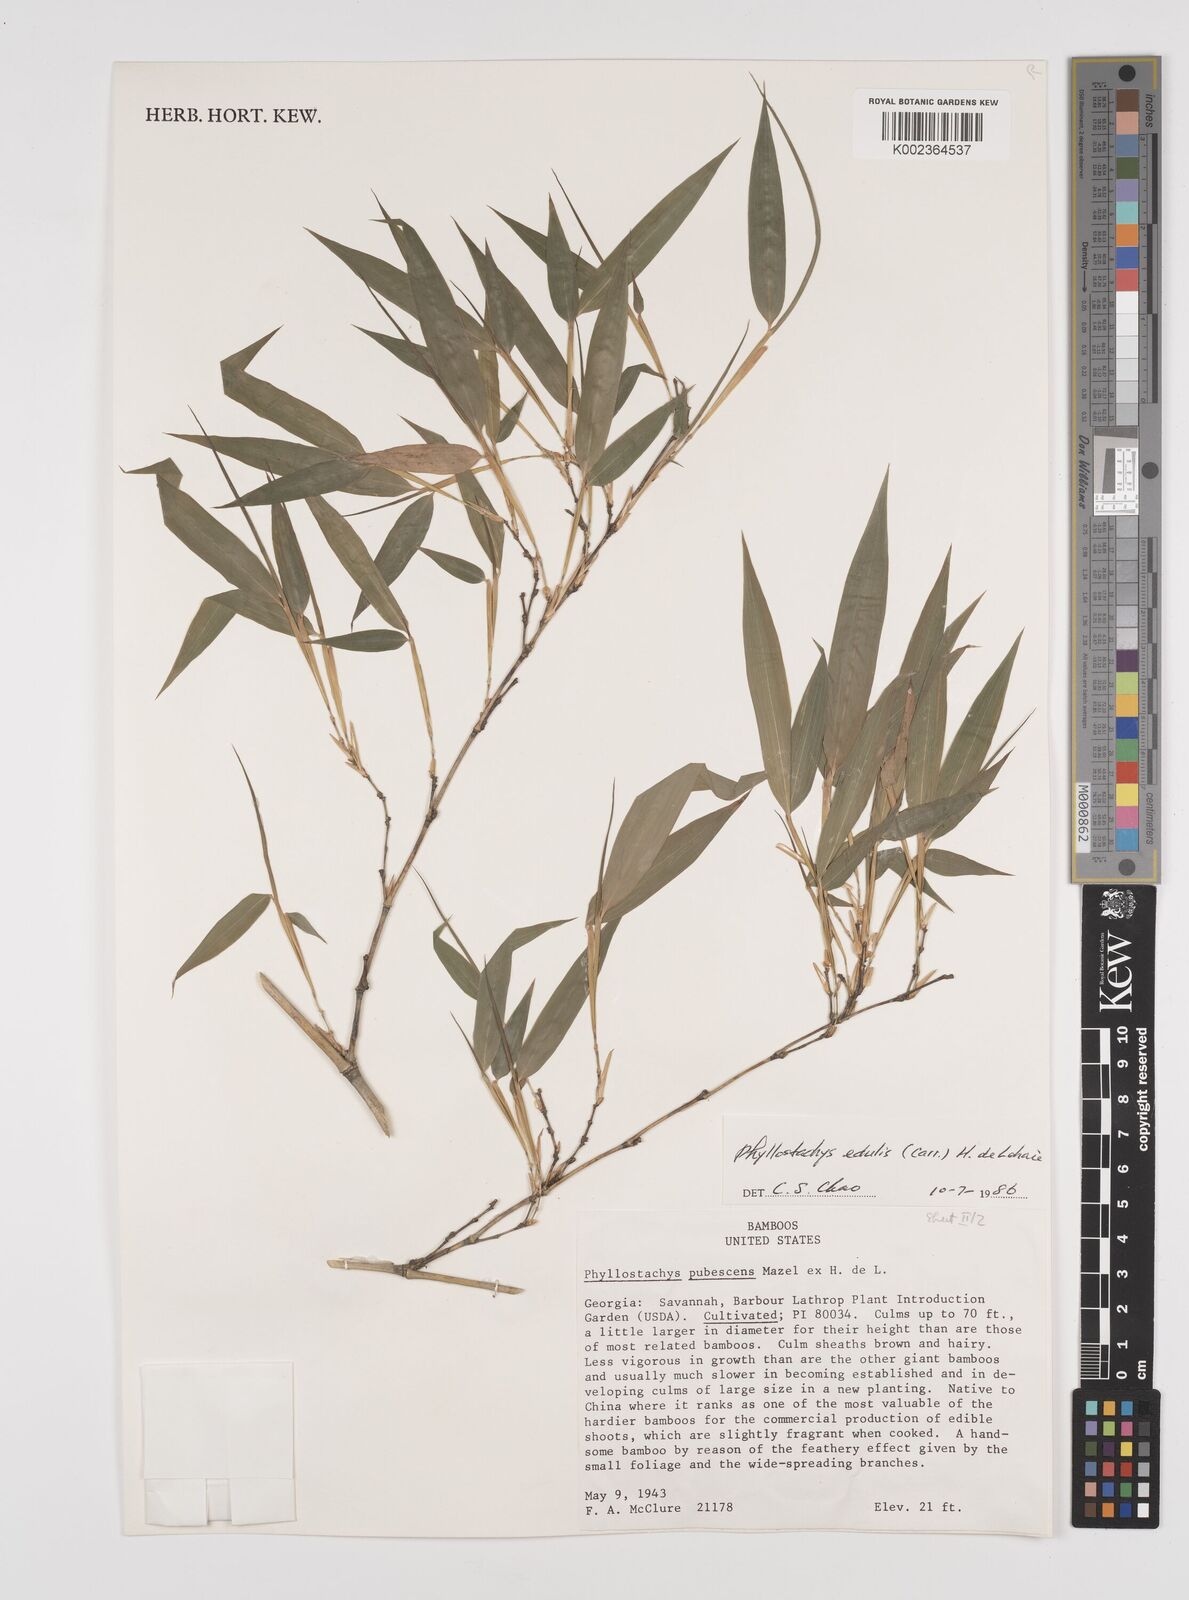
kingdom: Plantae
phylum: Tracheophyta
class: Liliopsida
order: Poales
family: Poaceae
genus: Phyllostachys
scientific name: Phyllostachys edulis
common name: Tortoise shell bamboo
